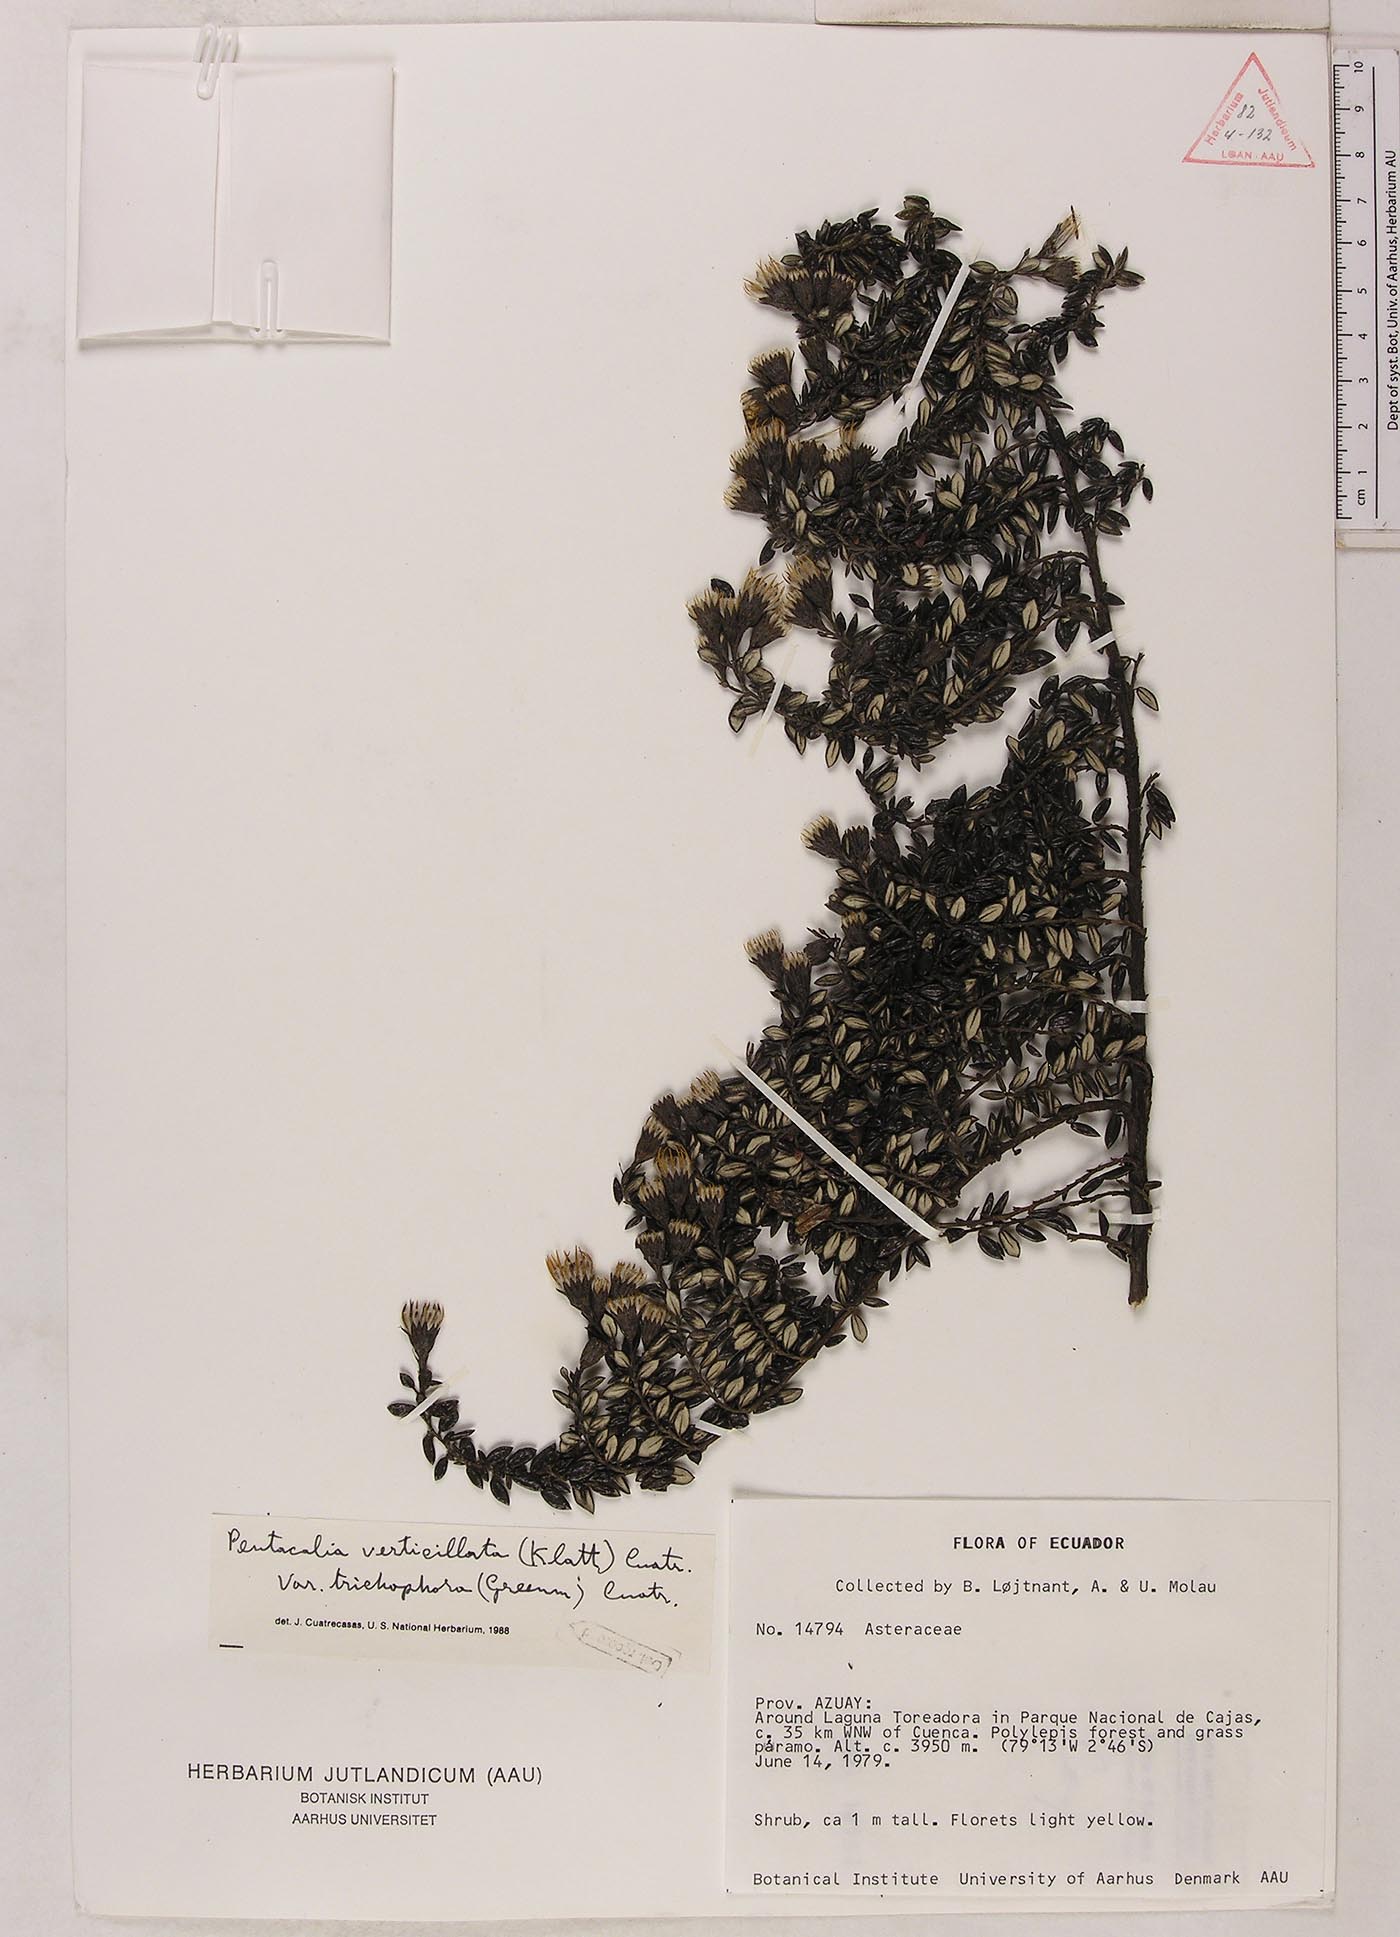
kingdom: Plantae
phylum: Tracheophyta
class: Magnoliopsida
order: Asterales
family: Asteraceae
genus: Monticalia
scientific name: Monticalia verticillata
